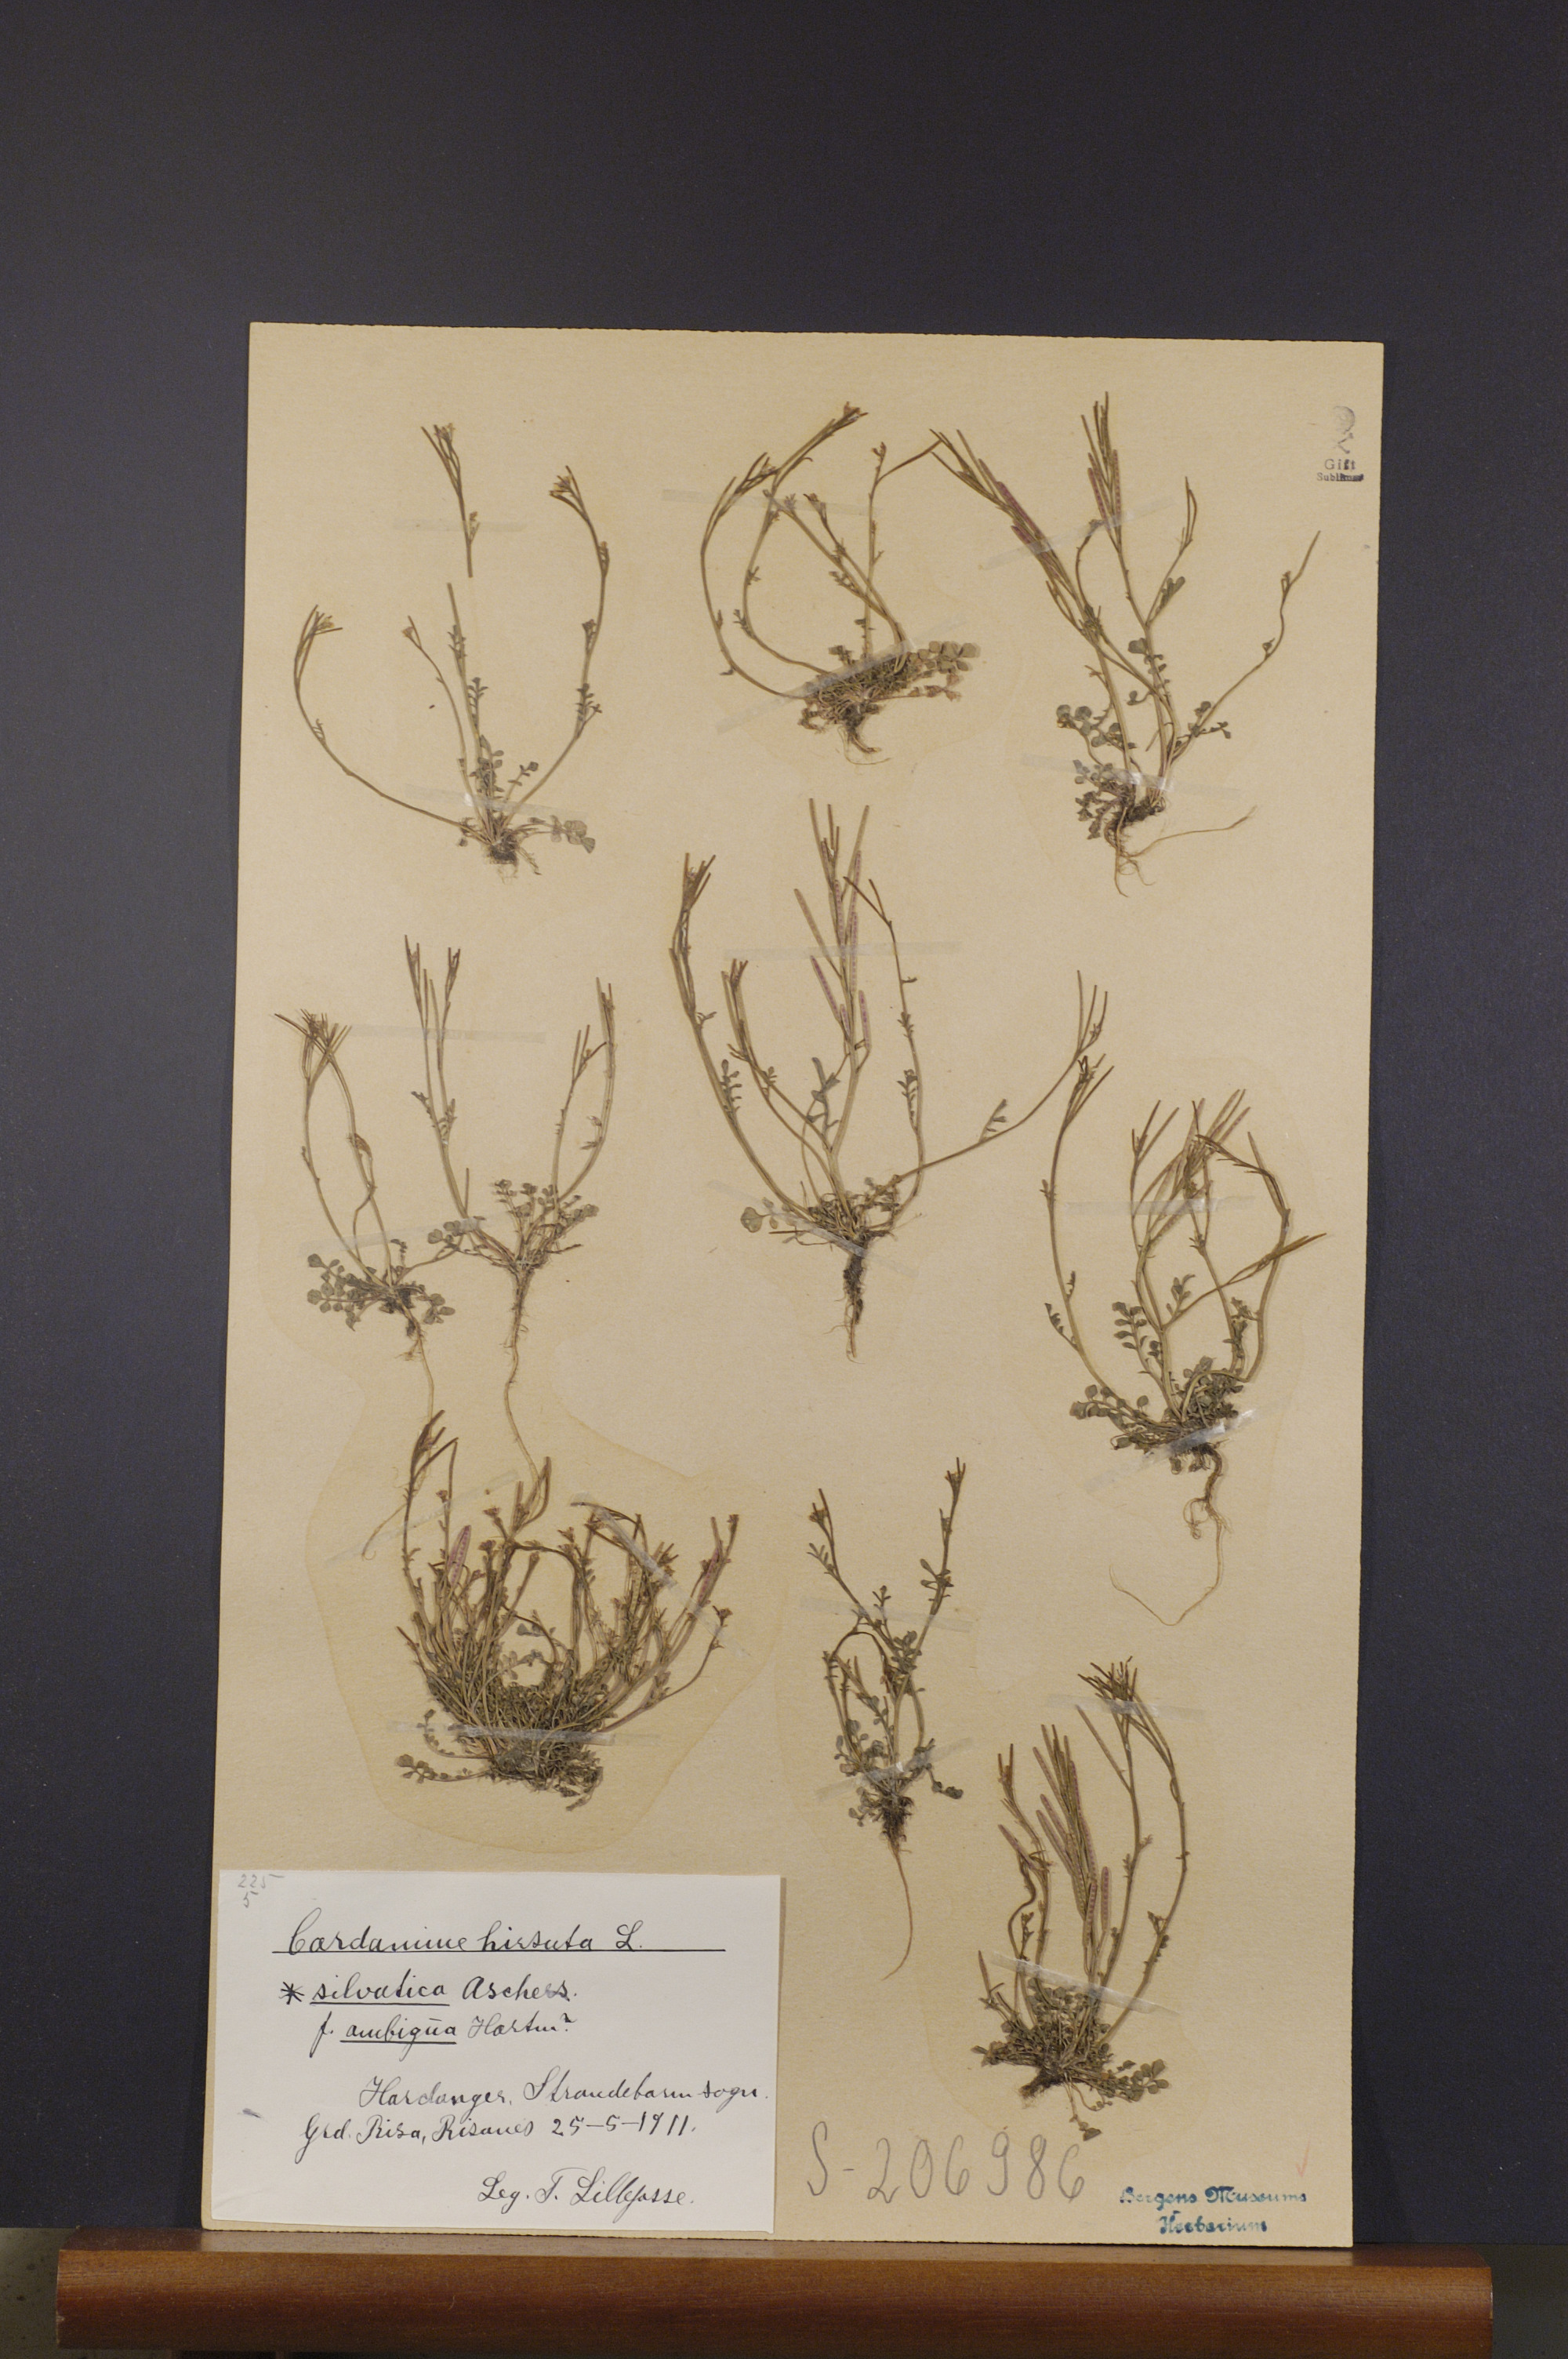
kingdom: Plantae
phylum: Tracheophyta
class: Magnoliopsida
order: Brassicales
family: Brassicaceae
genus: Cardamine
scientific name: Cardamine flexuosa
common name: Woodland bittercress
